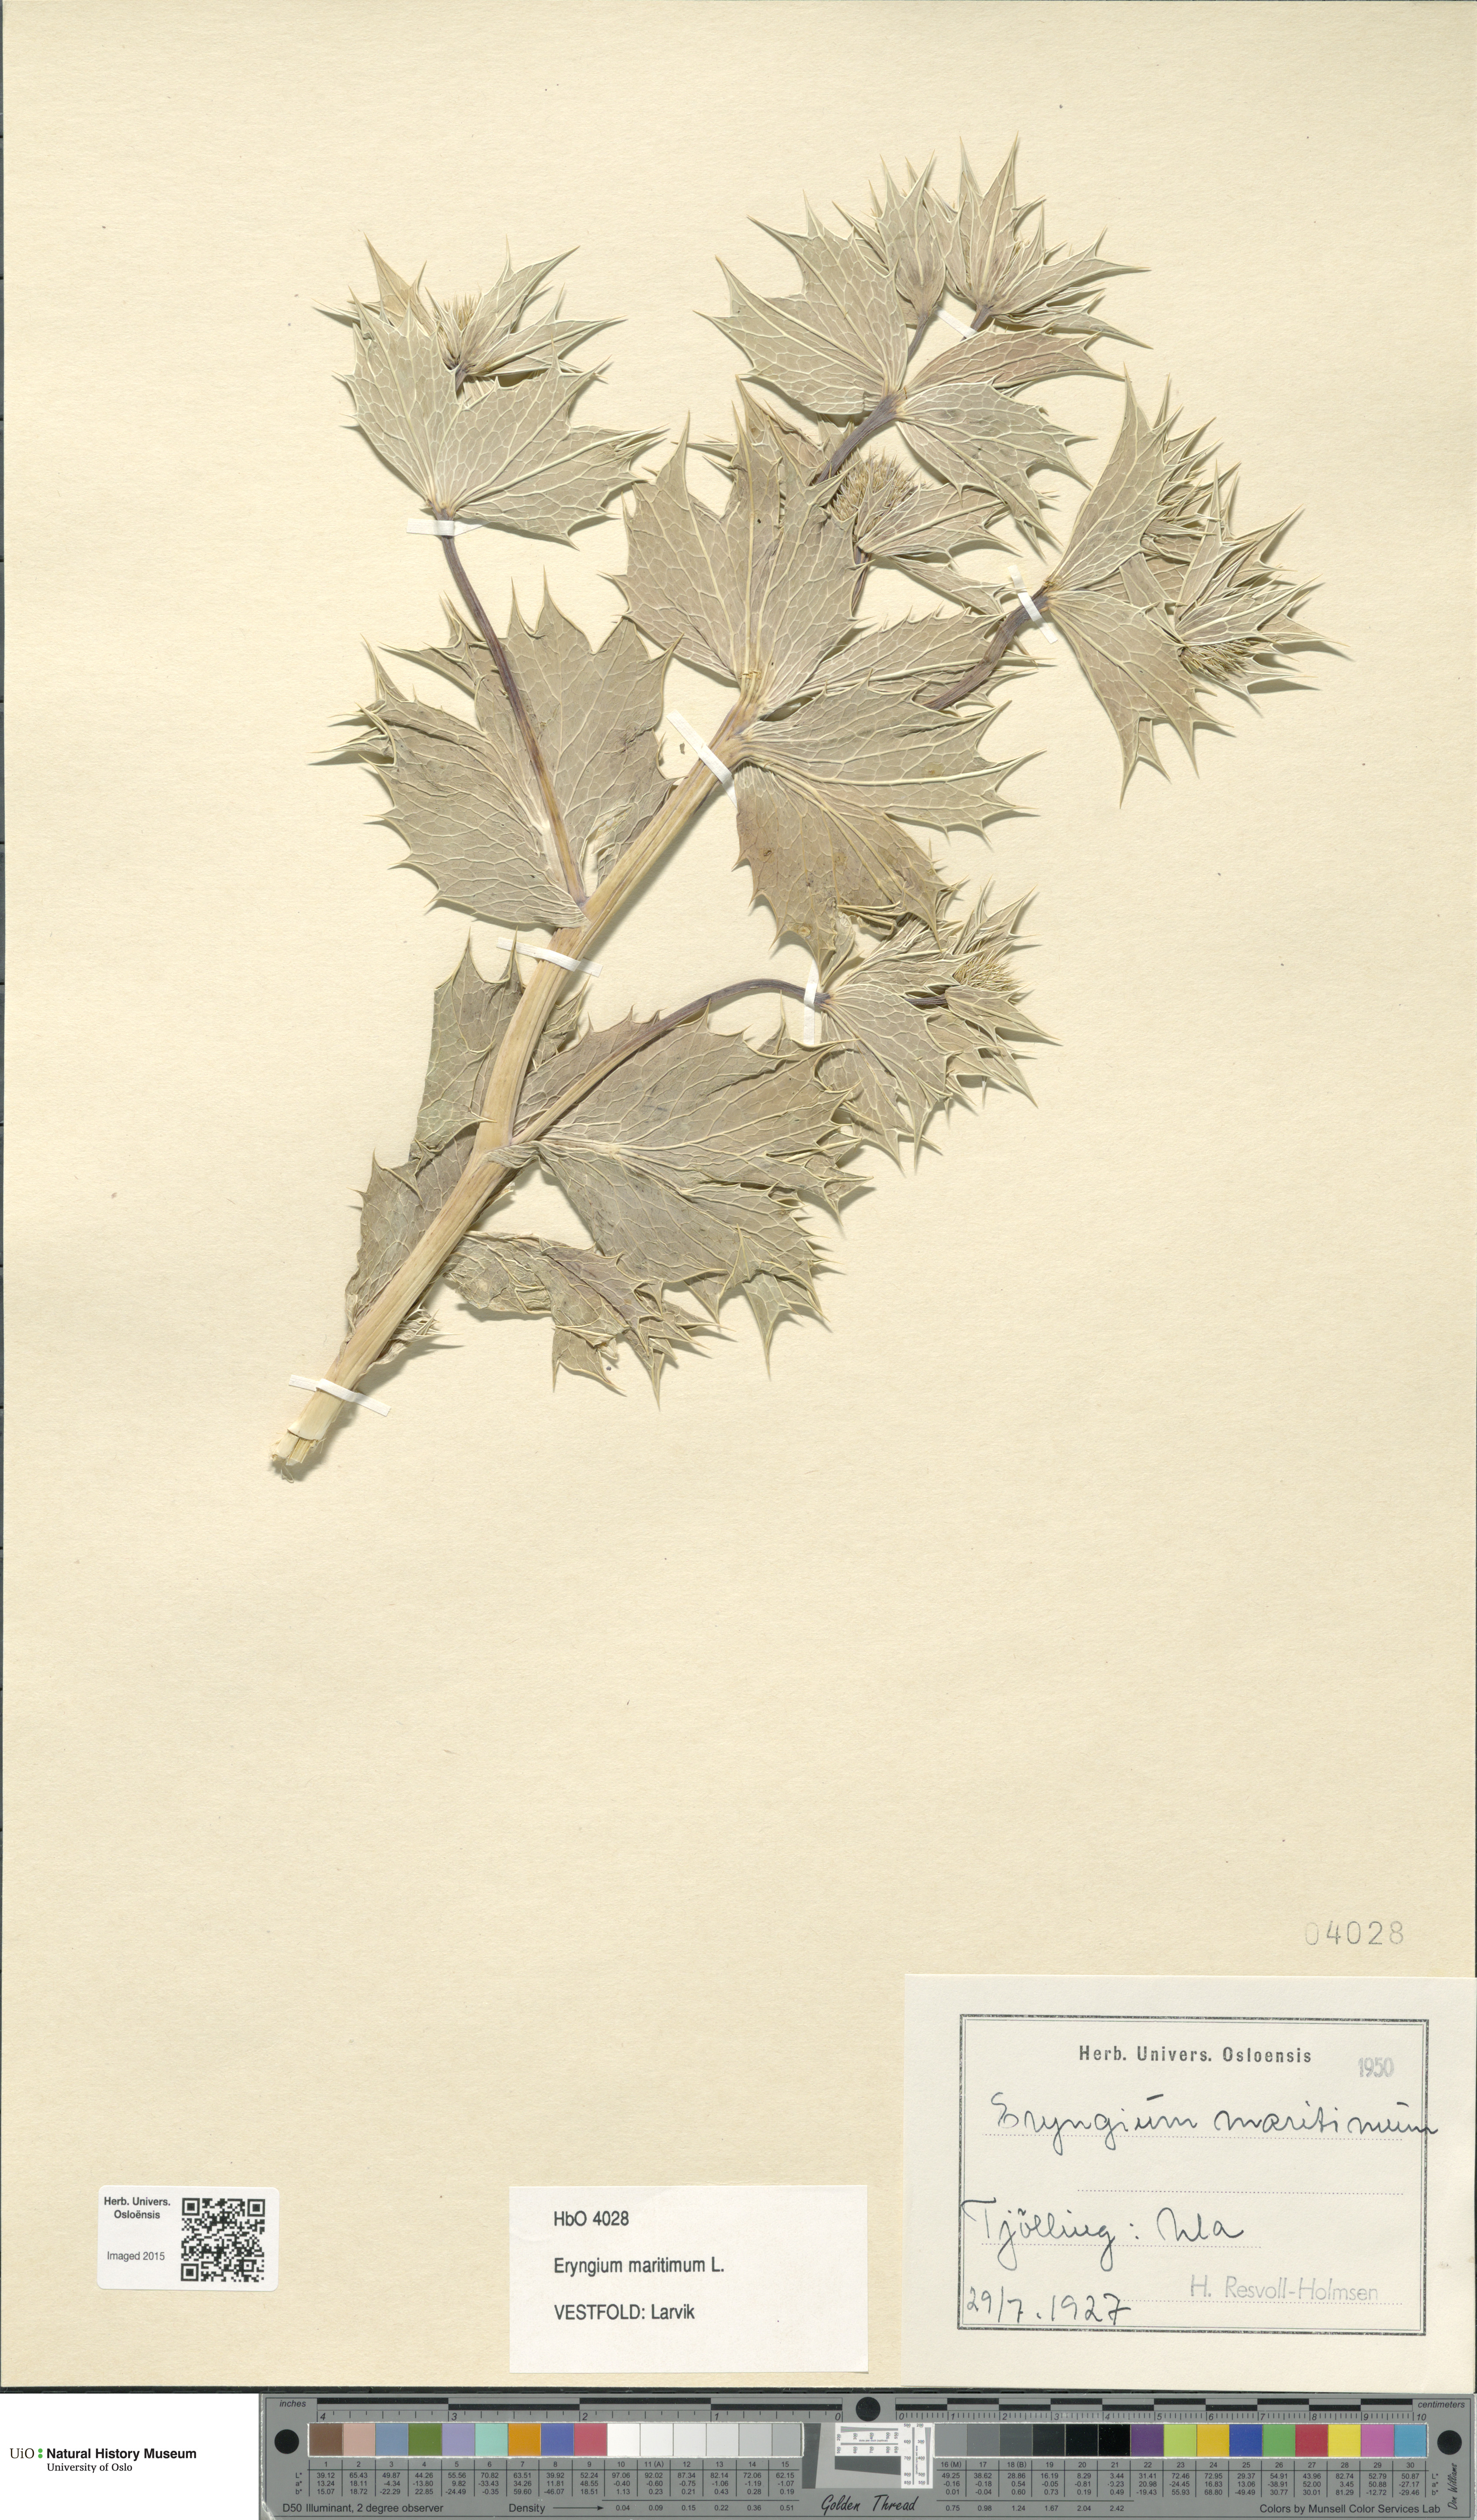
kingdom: Plantae
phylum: Tracheophyta
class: Magnoliopsida
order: Apiales
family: Apiaceae
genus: Eryngium
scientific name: Eryngium maritimum
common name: Sea-holly
